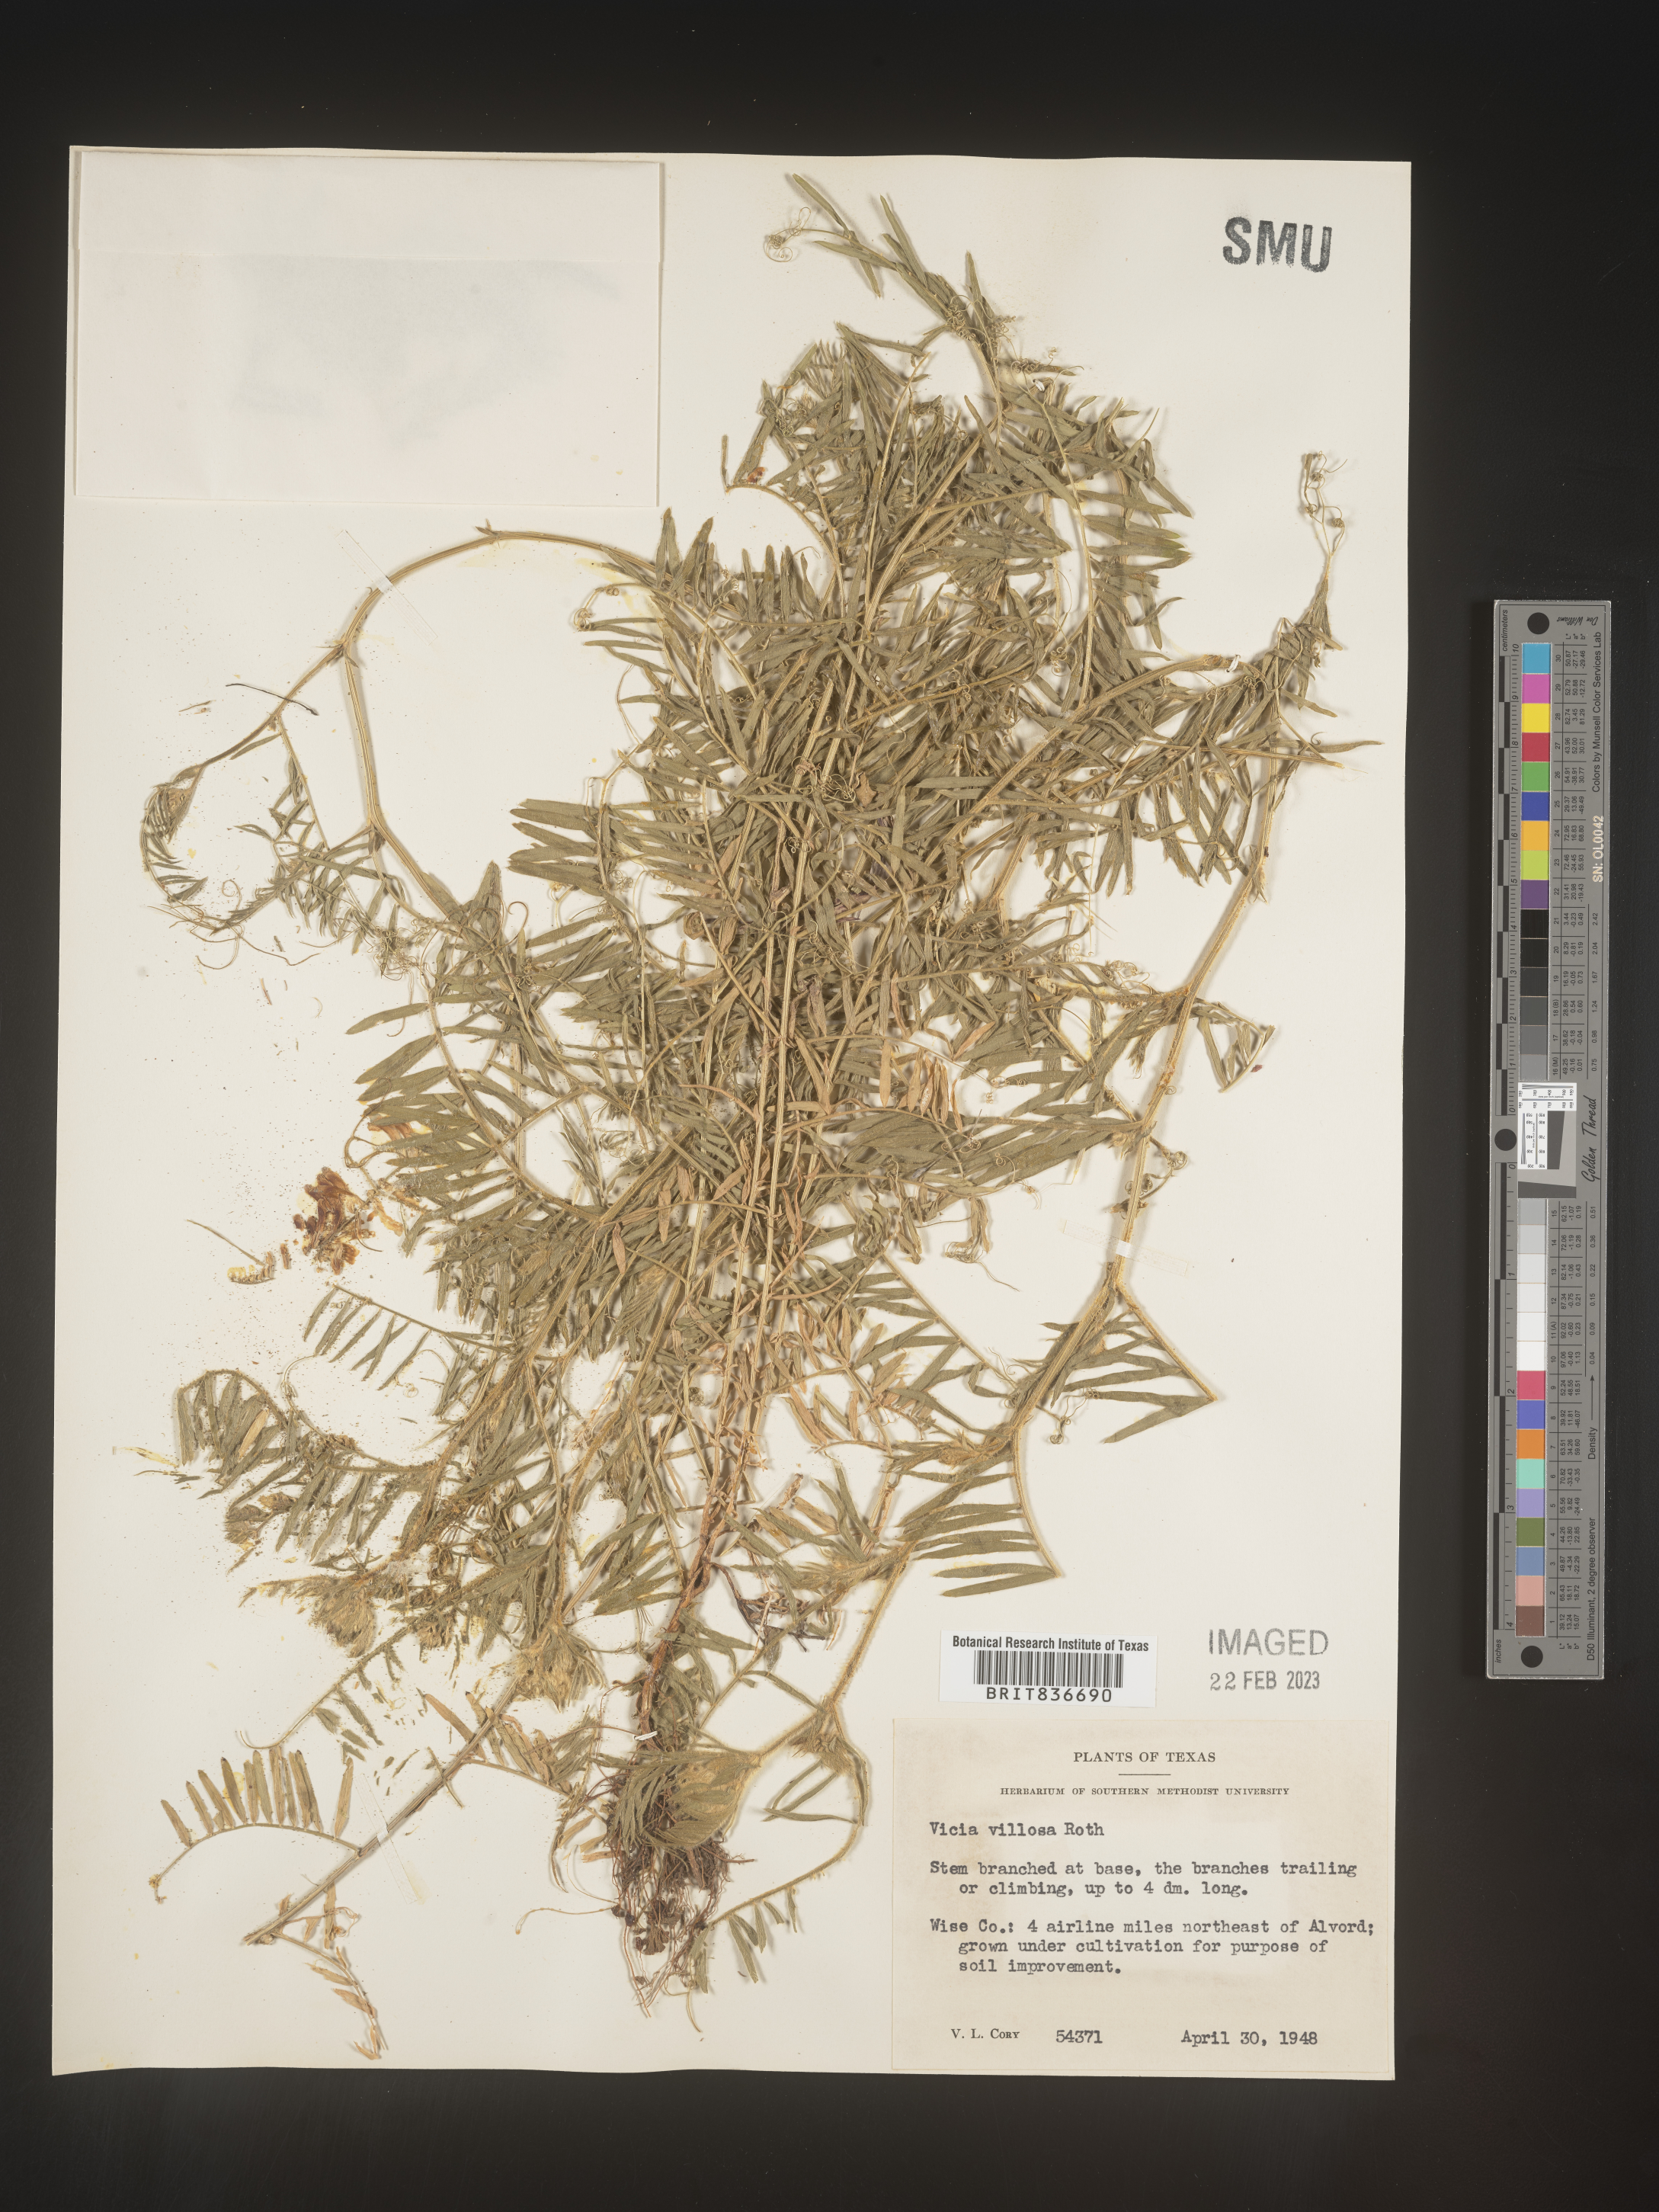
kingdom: Plantae
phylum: Tracheophyta
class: Magnoliopsida
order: Fabales
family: Fabaceae
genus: Vicia
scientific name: Vicia
